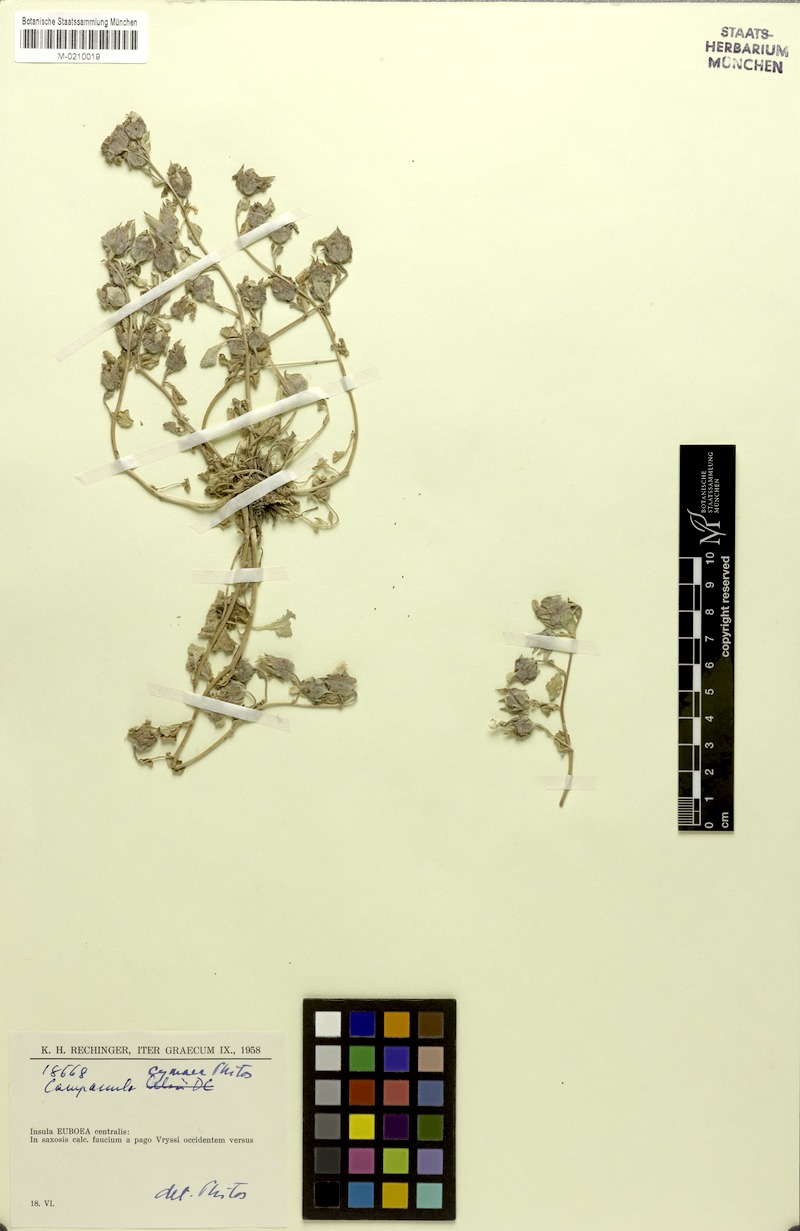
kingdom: Plantae
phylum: Tracheophyta
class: Magnoliopsida
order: Asterales
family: Campanulaceae
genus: Campanula
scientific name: Campanula cymaea
